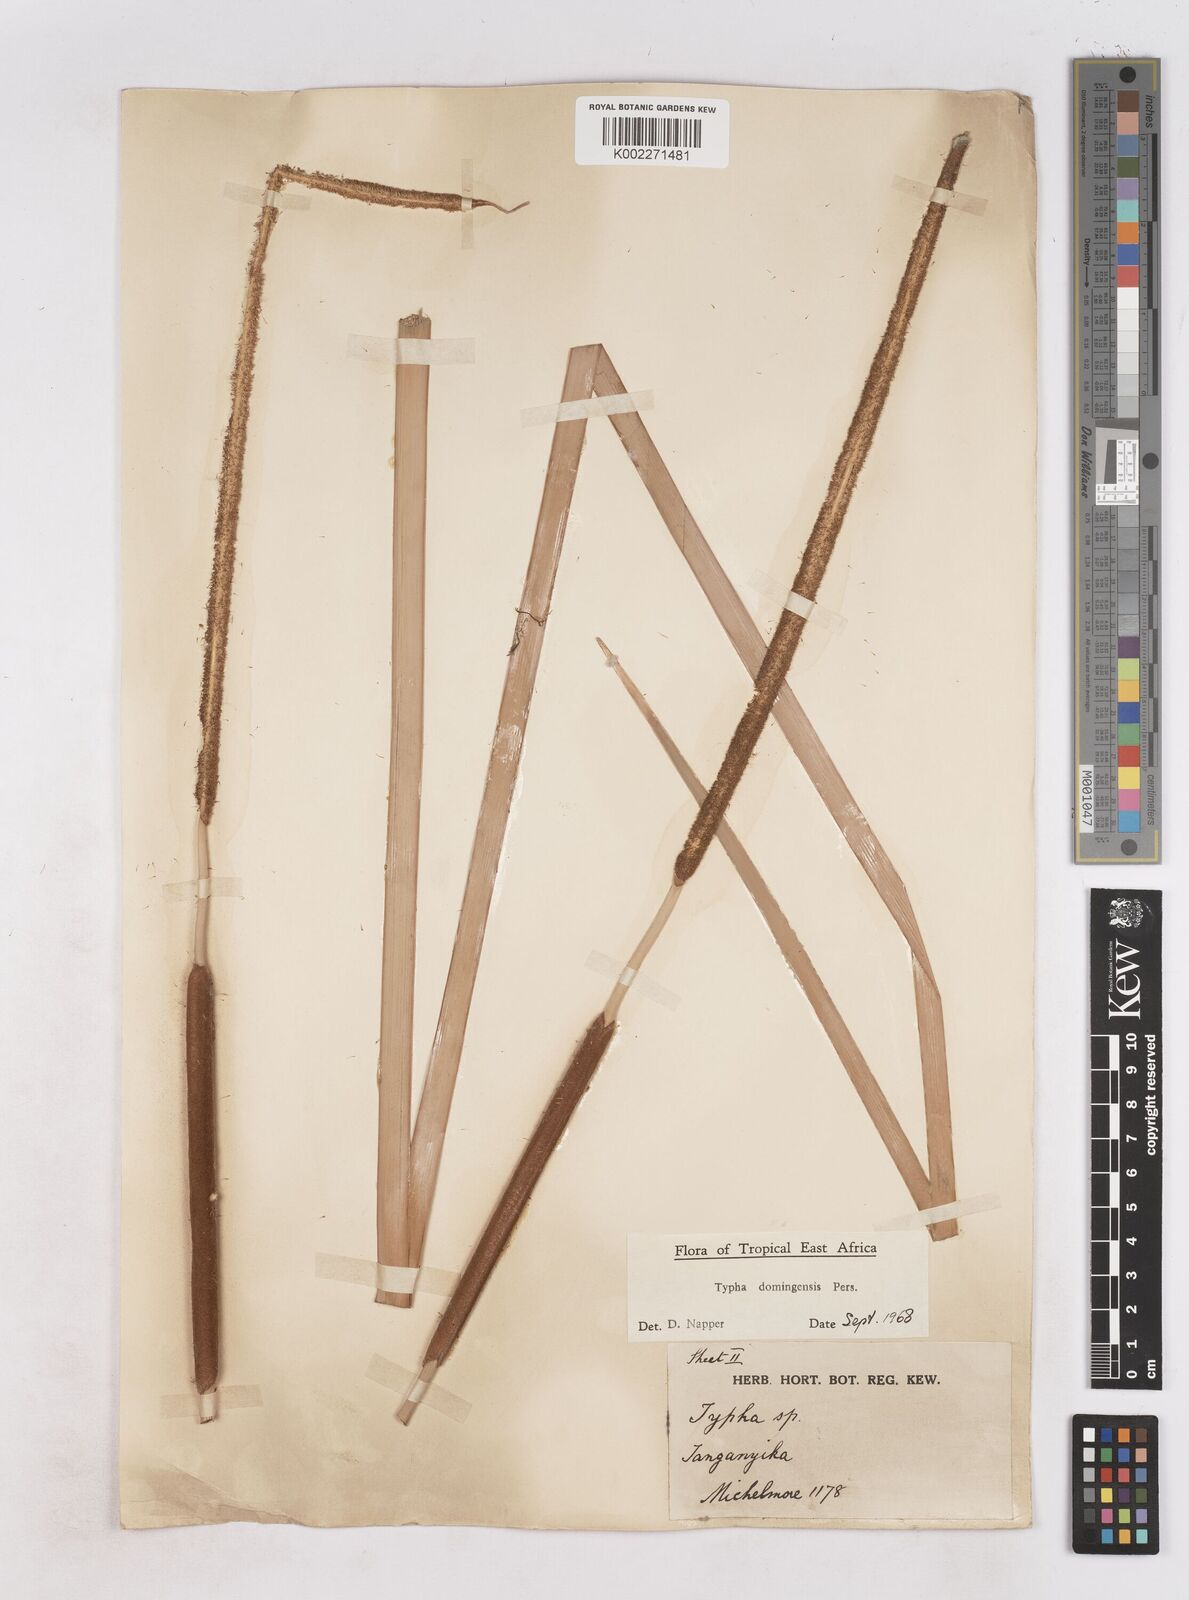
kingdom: Plantae
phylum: Tracheophyta
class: Liliopsida
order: Poales
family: Typhaceae
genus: Typha
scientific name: Typha domingensis
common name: Southern cattail
